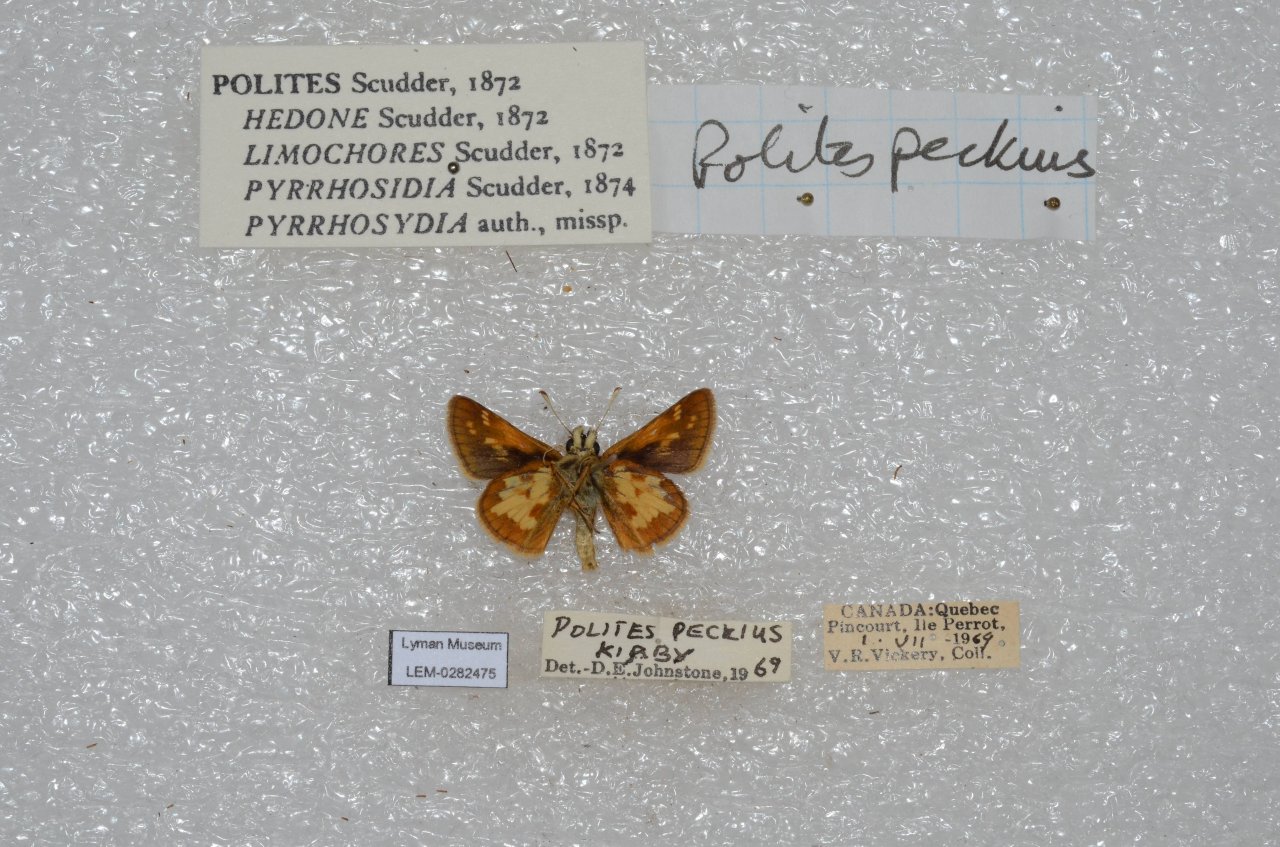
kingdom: Animalia
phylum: Arthropoda
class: Insecta
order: Lepidoptera
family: Hesperiidae
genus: Polites
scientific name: Polites coras
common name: Peck's Skipper
